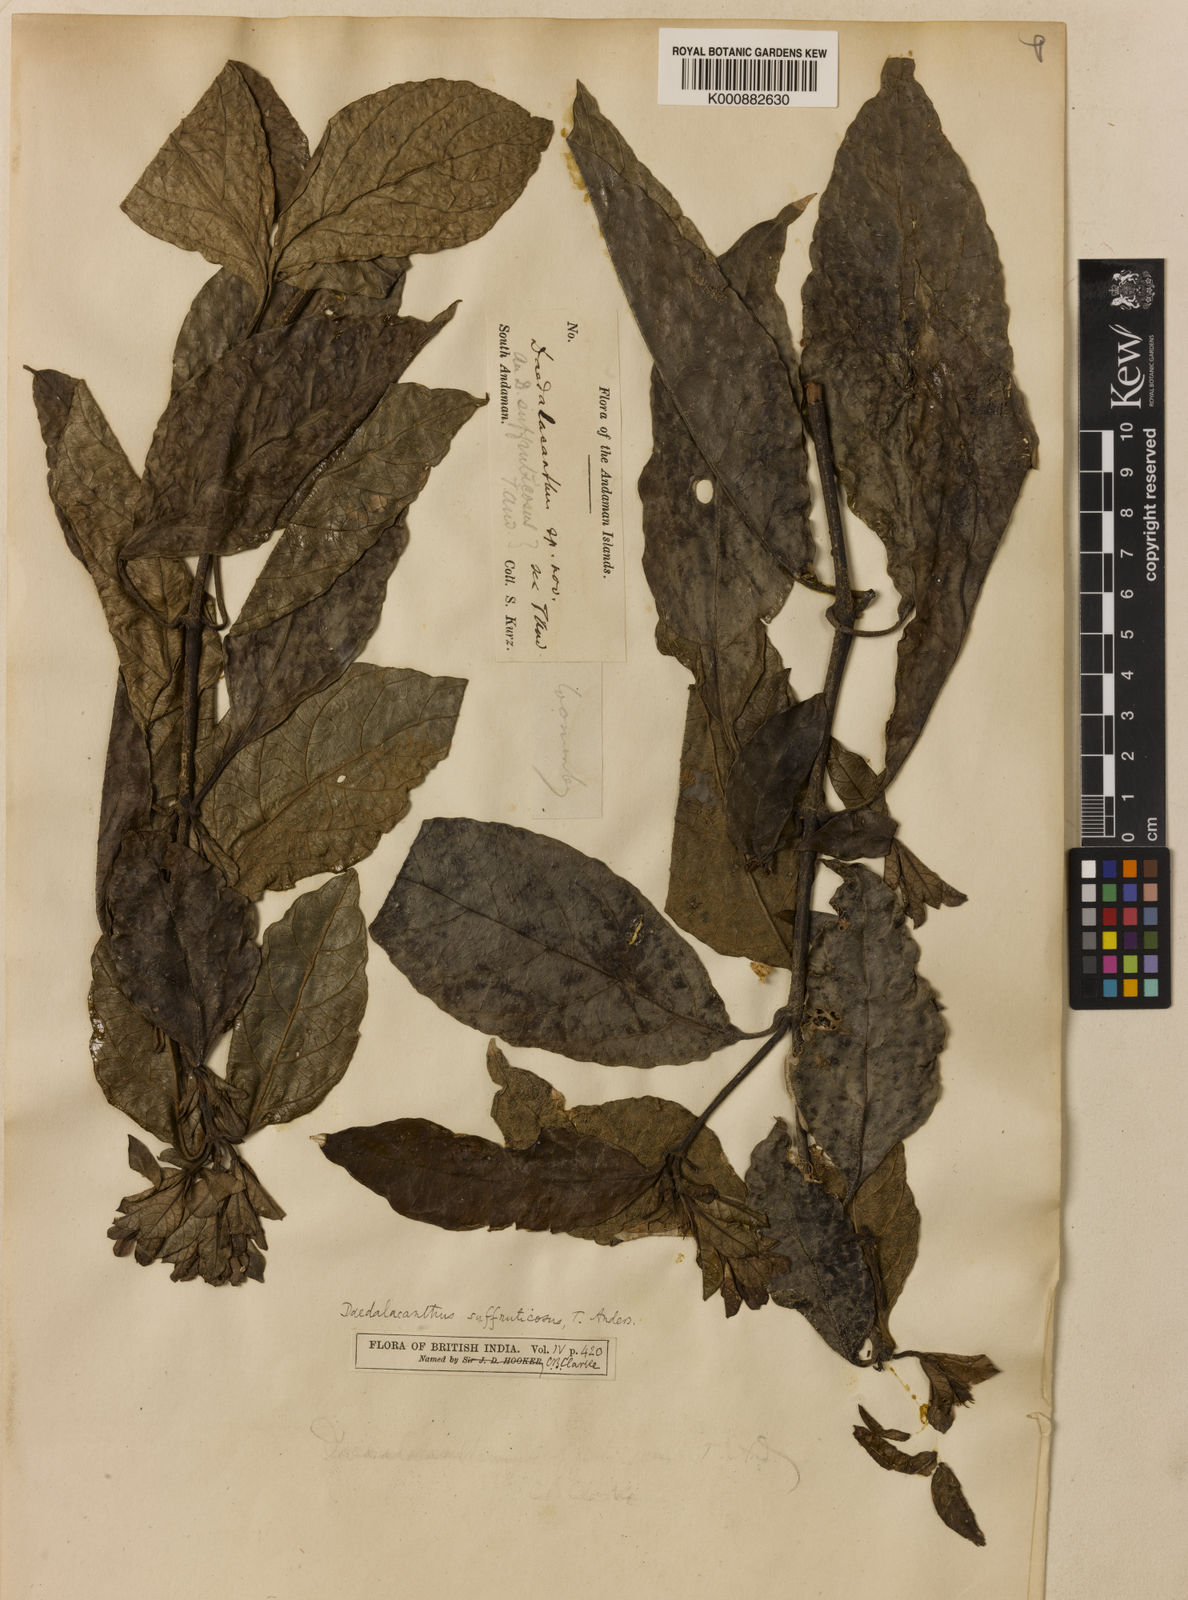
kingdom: Plantae
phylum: Tracheophyta
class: Magnoliopsida
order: Lamiales
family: Acanthaceae
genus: Eranthemum
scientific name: Eranthemum suffruticosum
